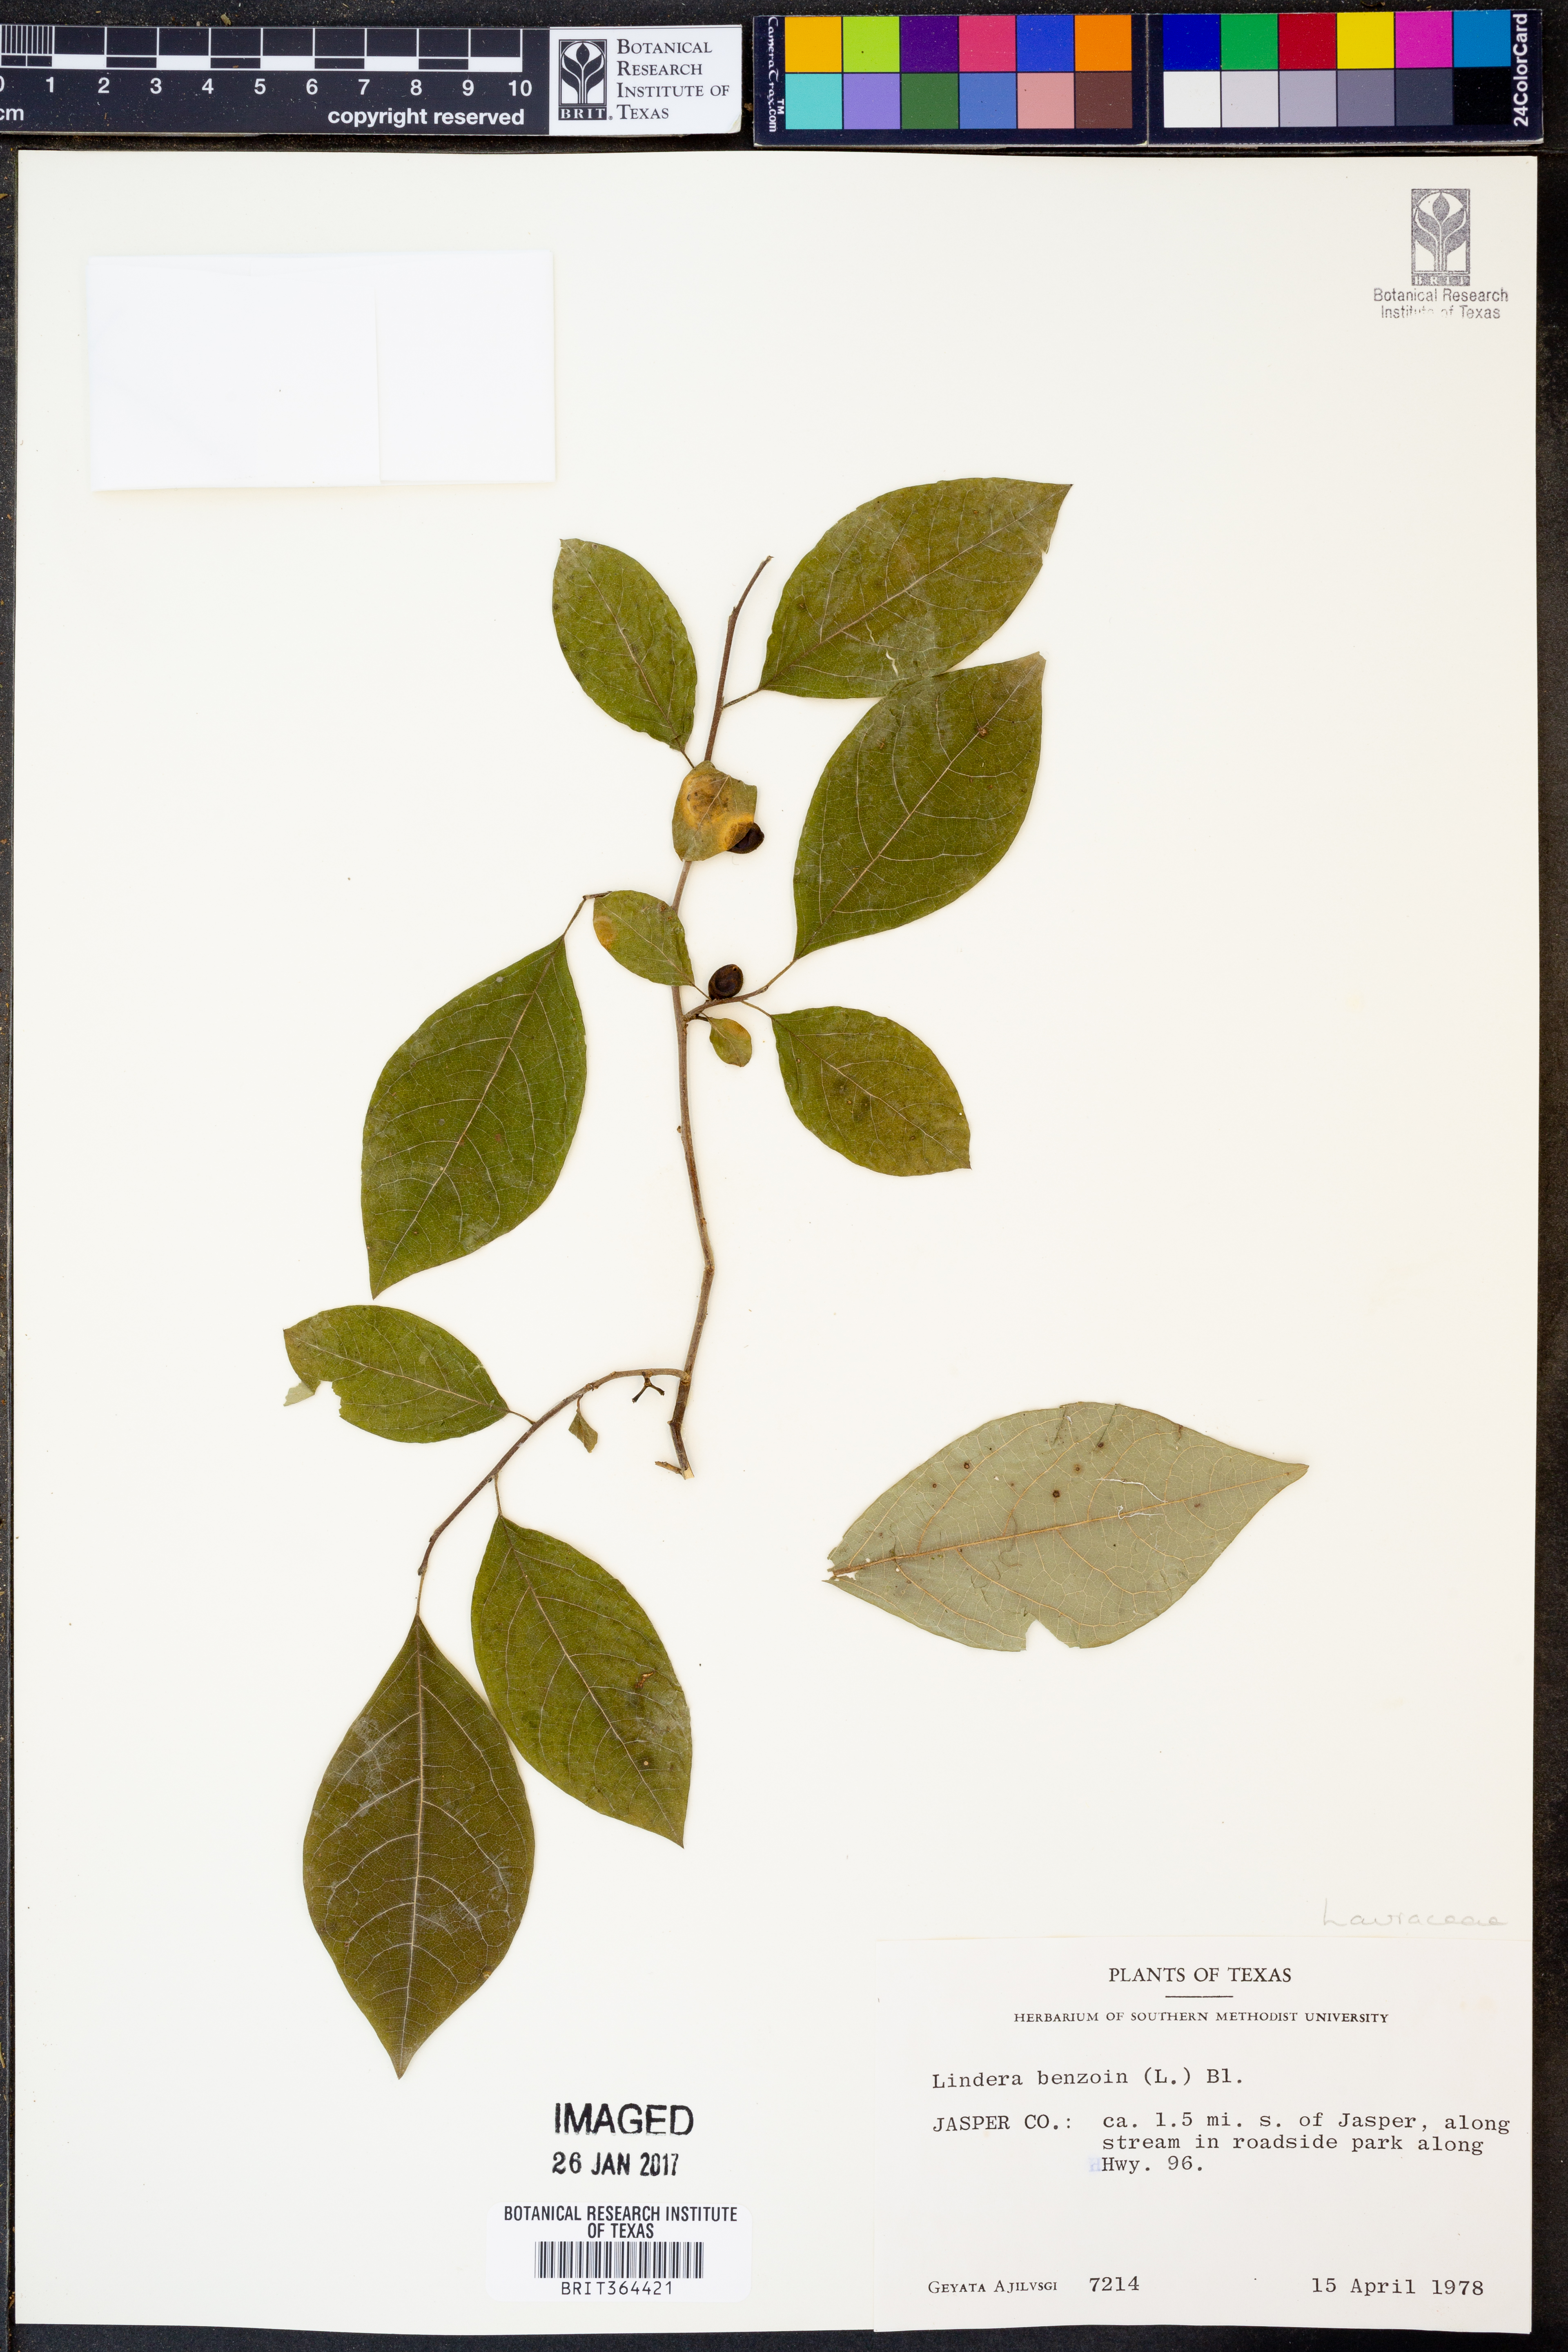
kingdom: Plantae
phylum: Tracheophyta
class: Magnoliopsida
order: Laurales
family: Lauraceae
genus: Lindera
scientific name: Lindera benzoin
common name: Spicebush
